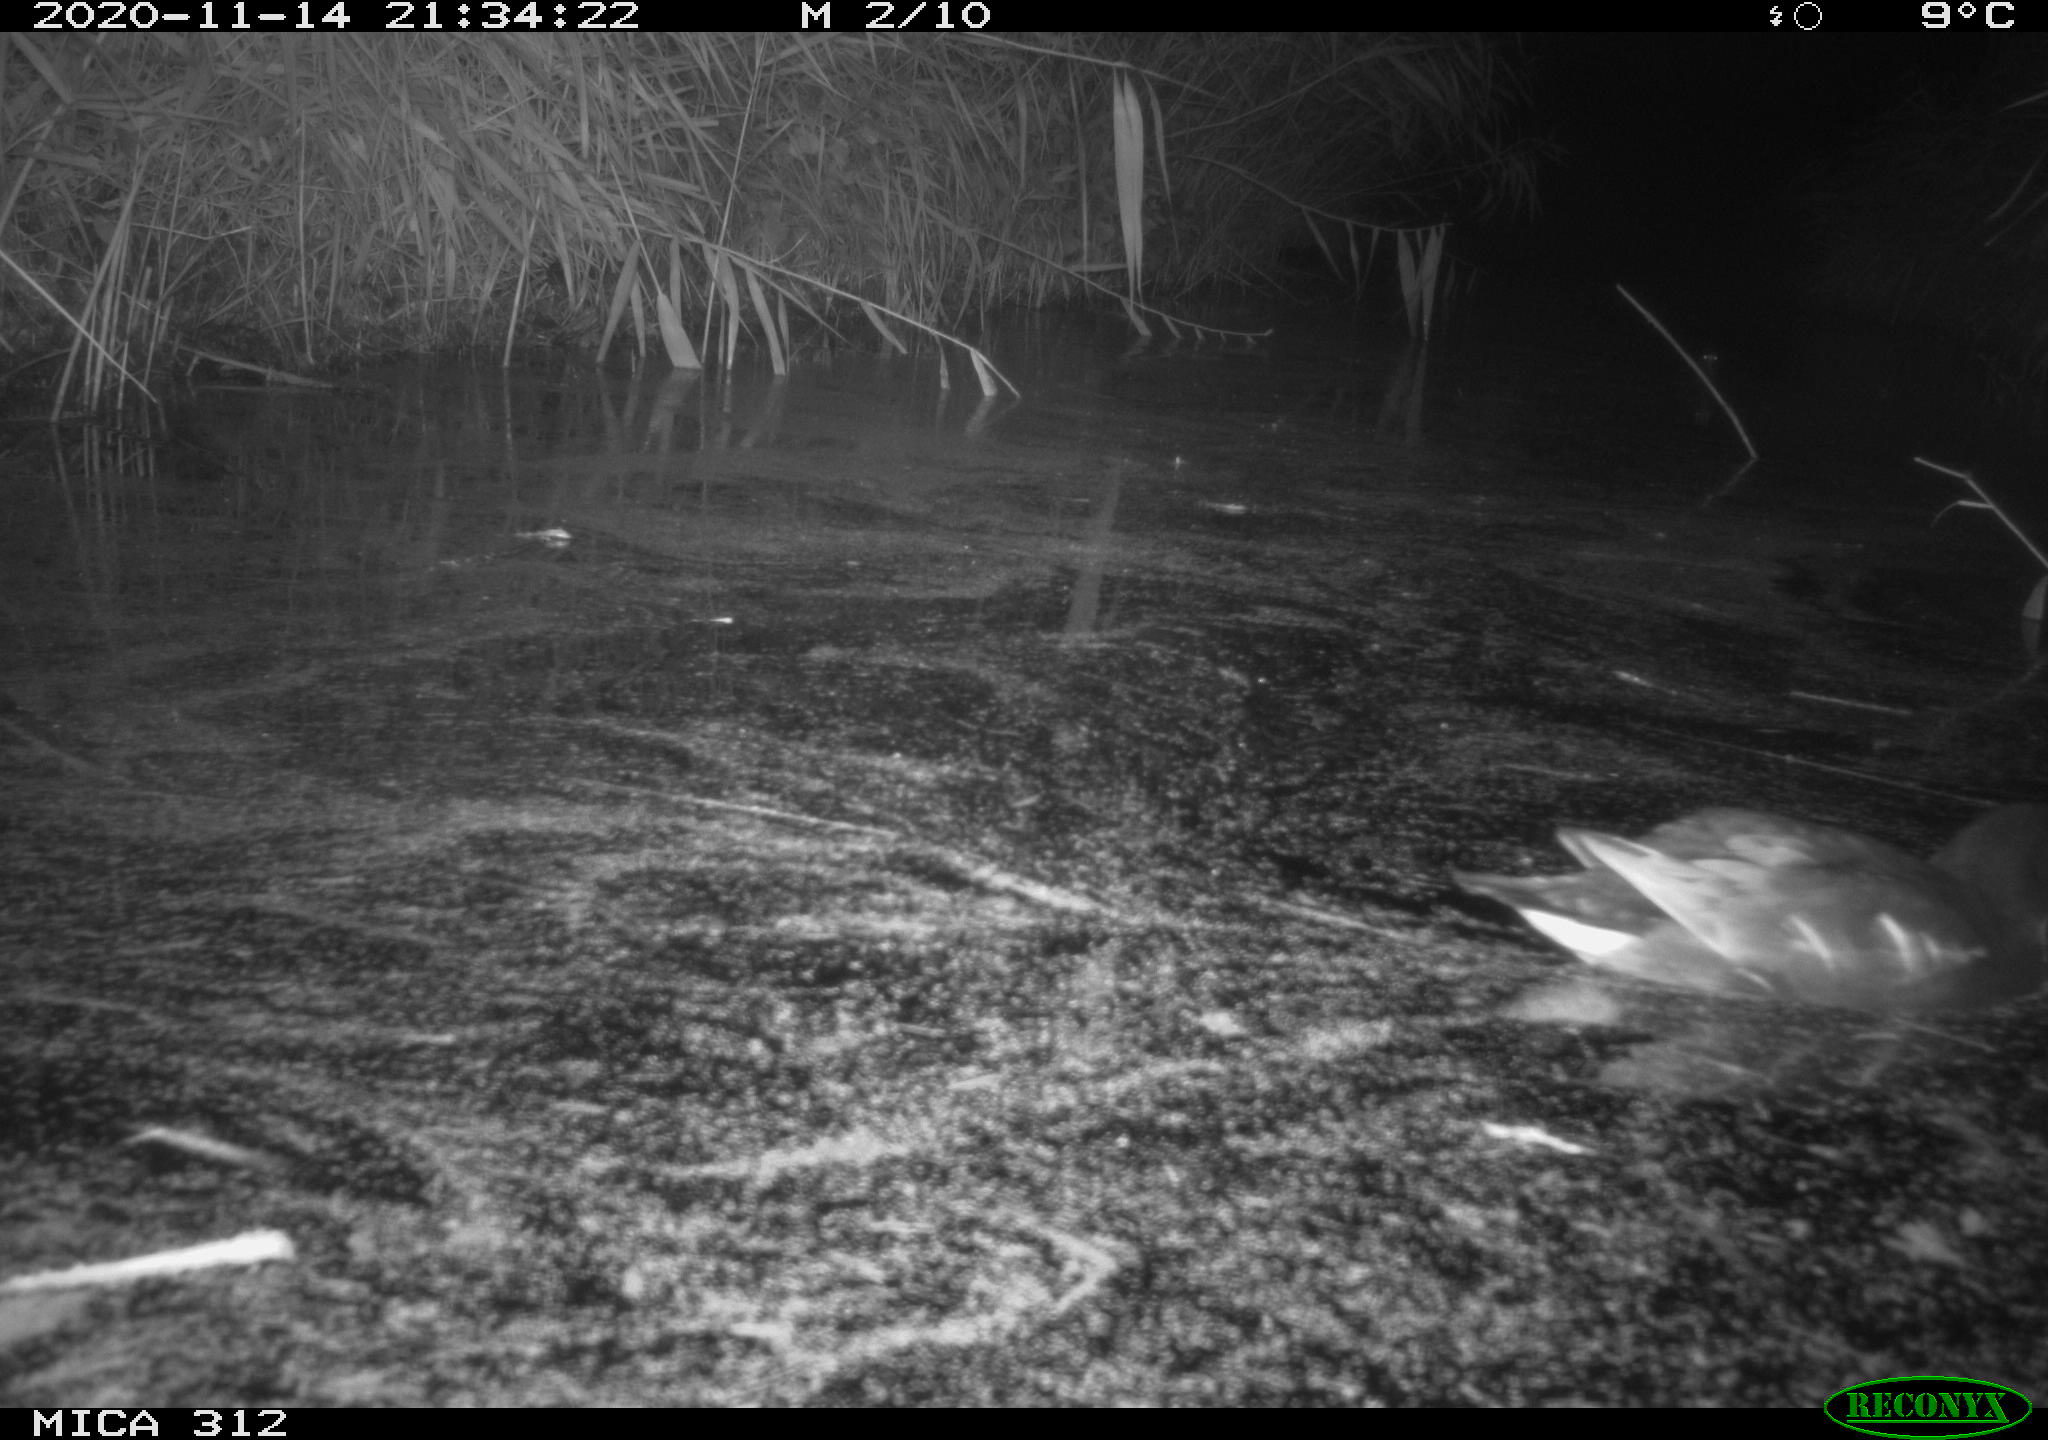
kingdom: Animalia
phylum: Chordata
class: Aves
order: Gruiformes
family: Rallidae
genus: Gallinula
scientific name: Gallinula chloropus
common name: Common moorhen
